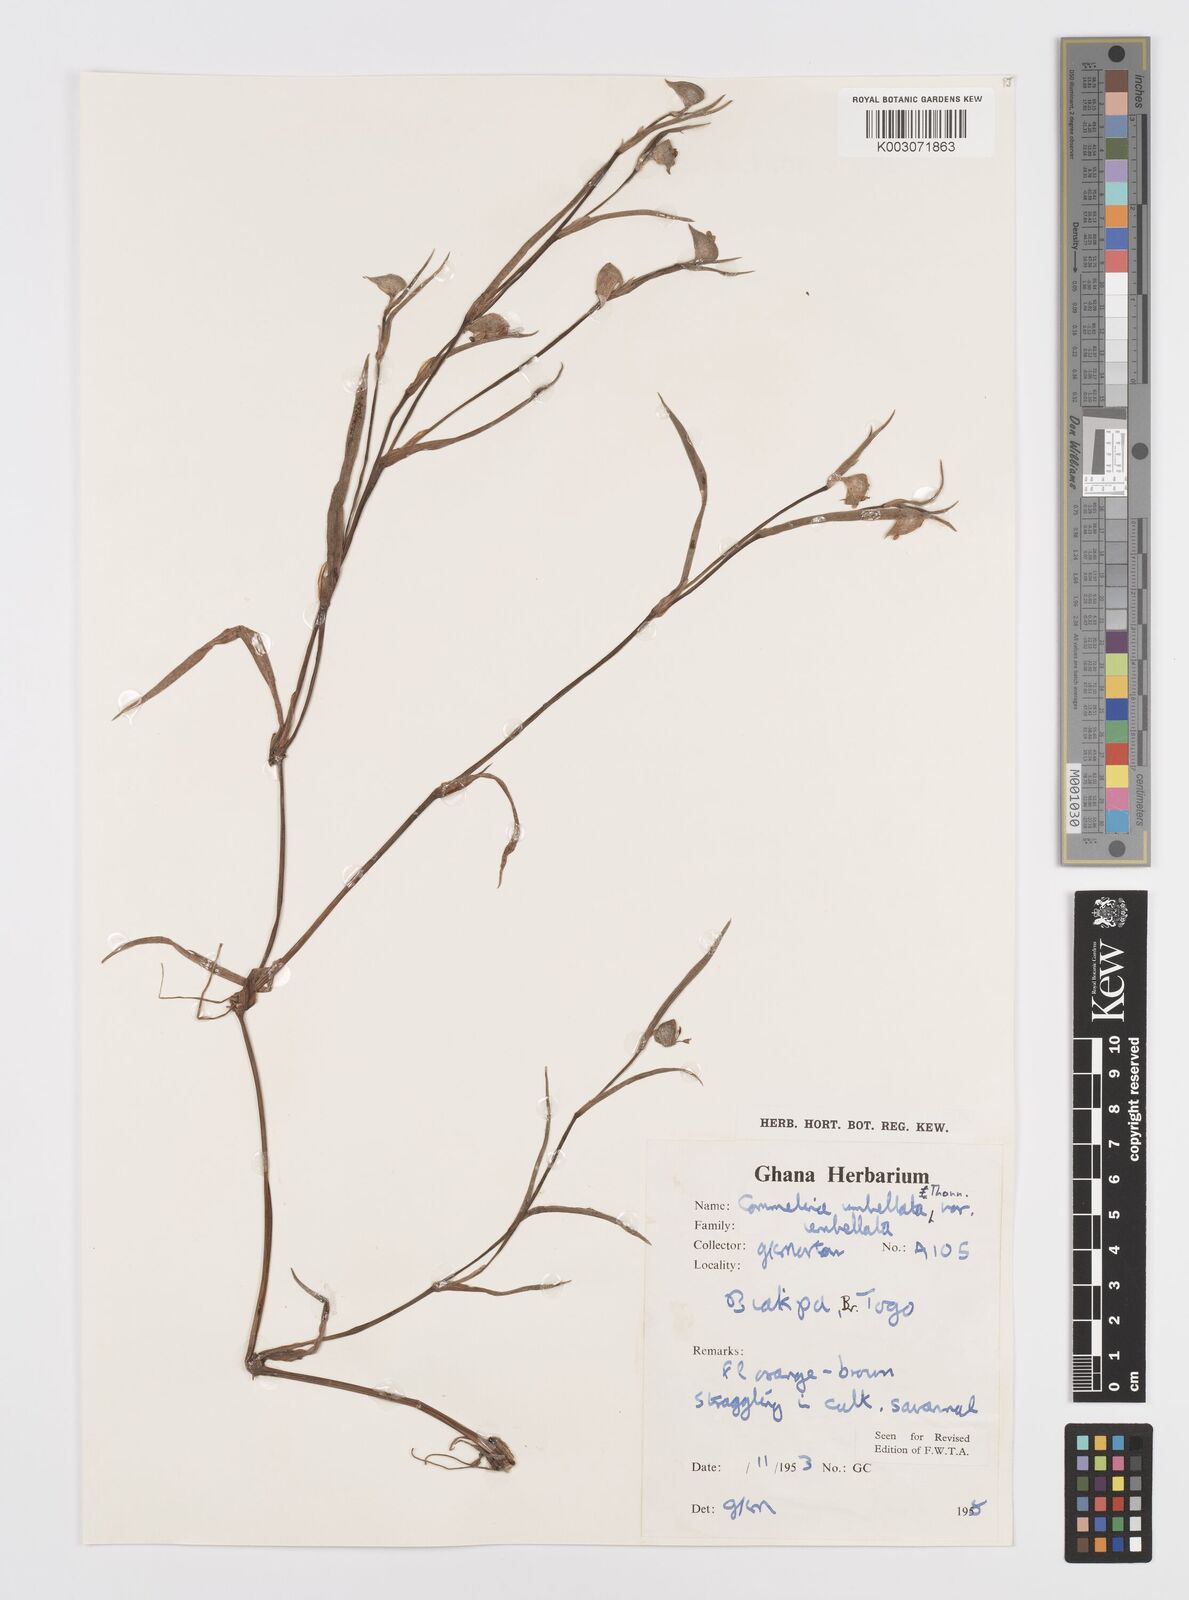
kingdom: Plantae
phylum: Tracheophyta
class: Liliopsida
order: Commelinales
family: Commelinaceae
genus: Commelina
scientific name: Commelina
